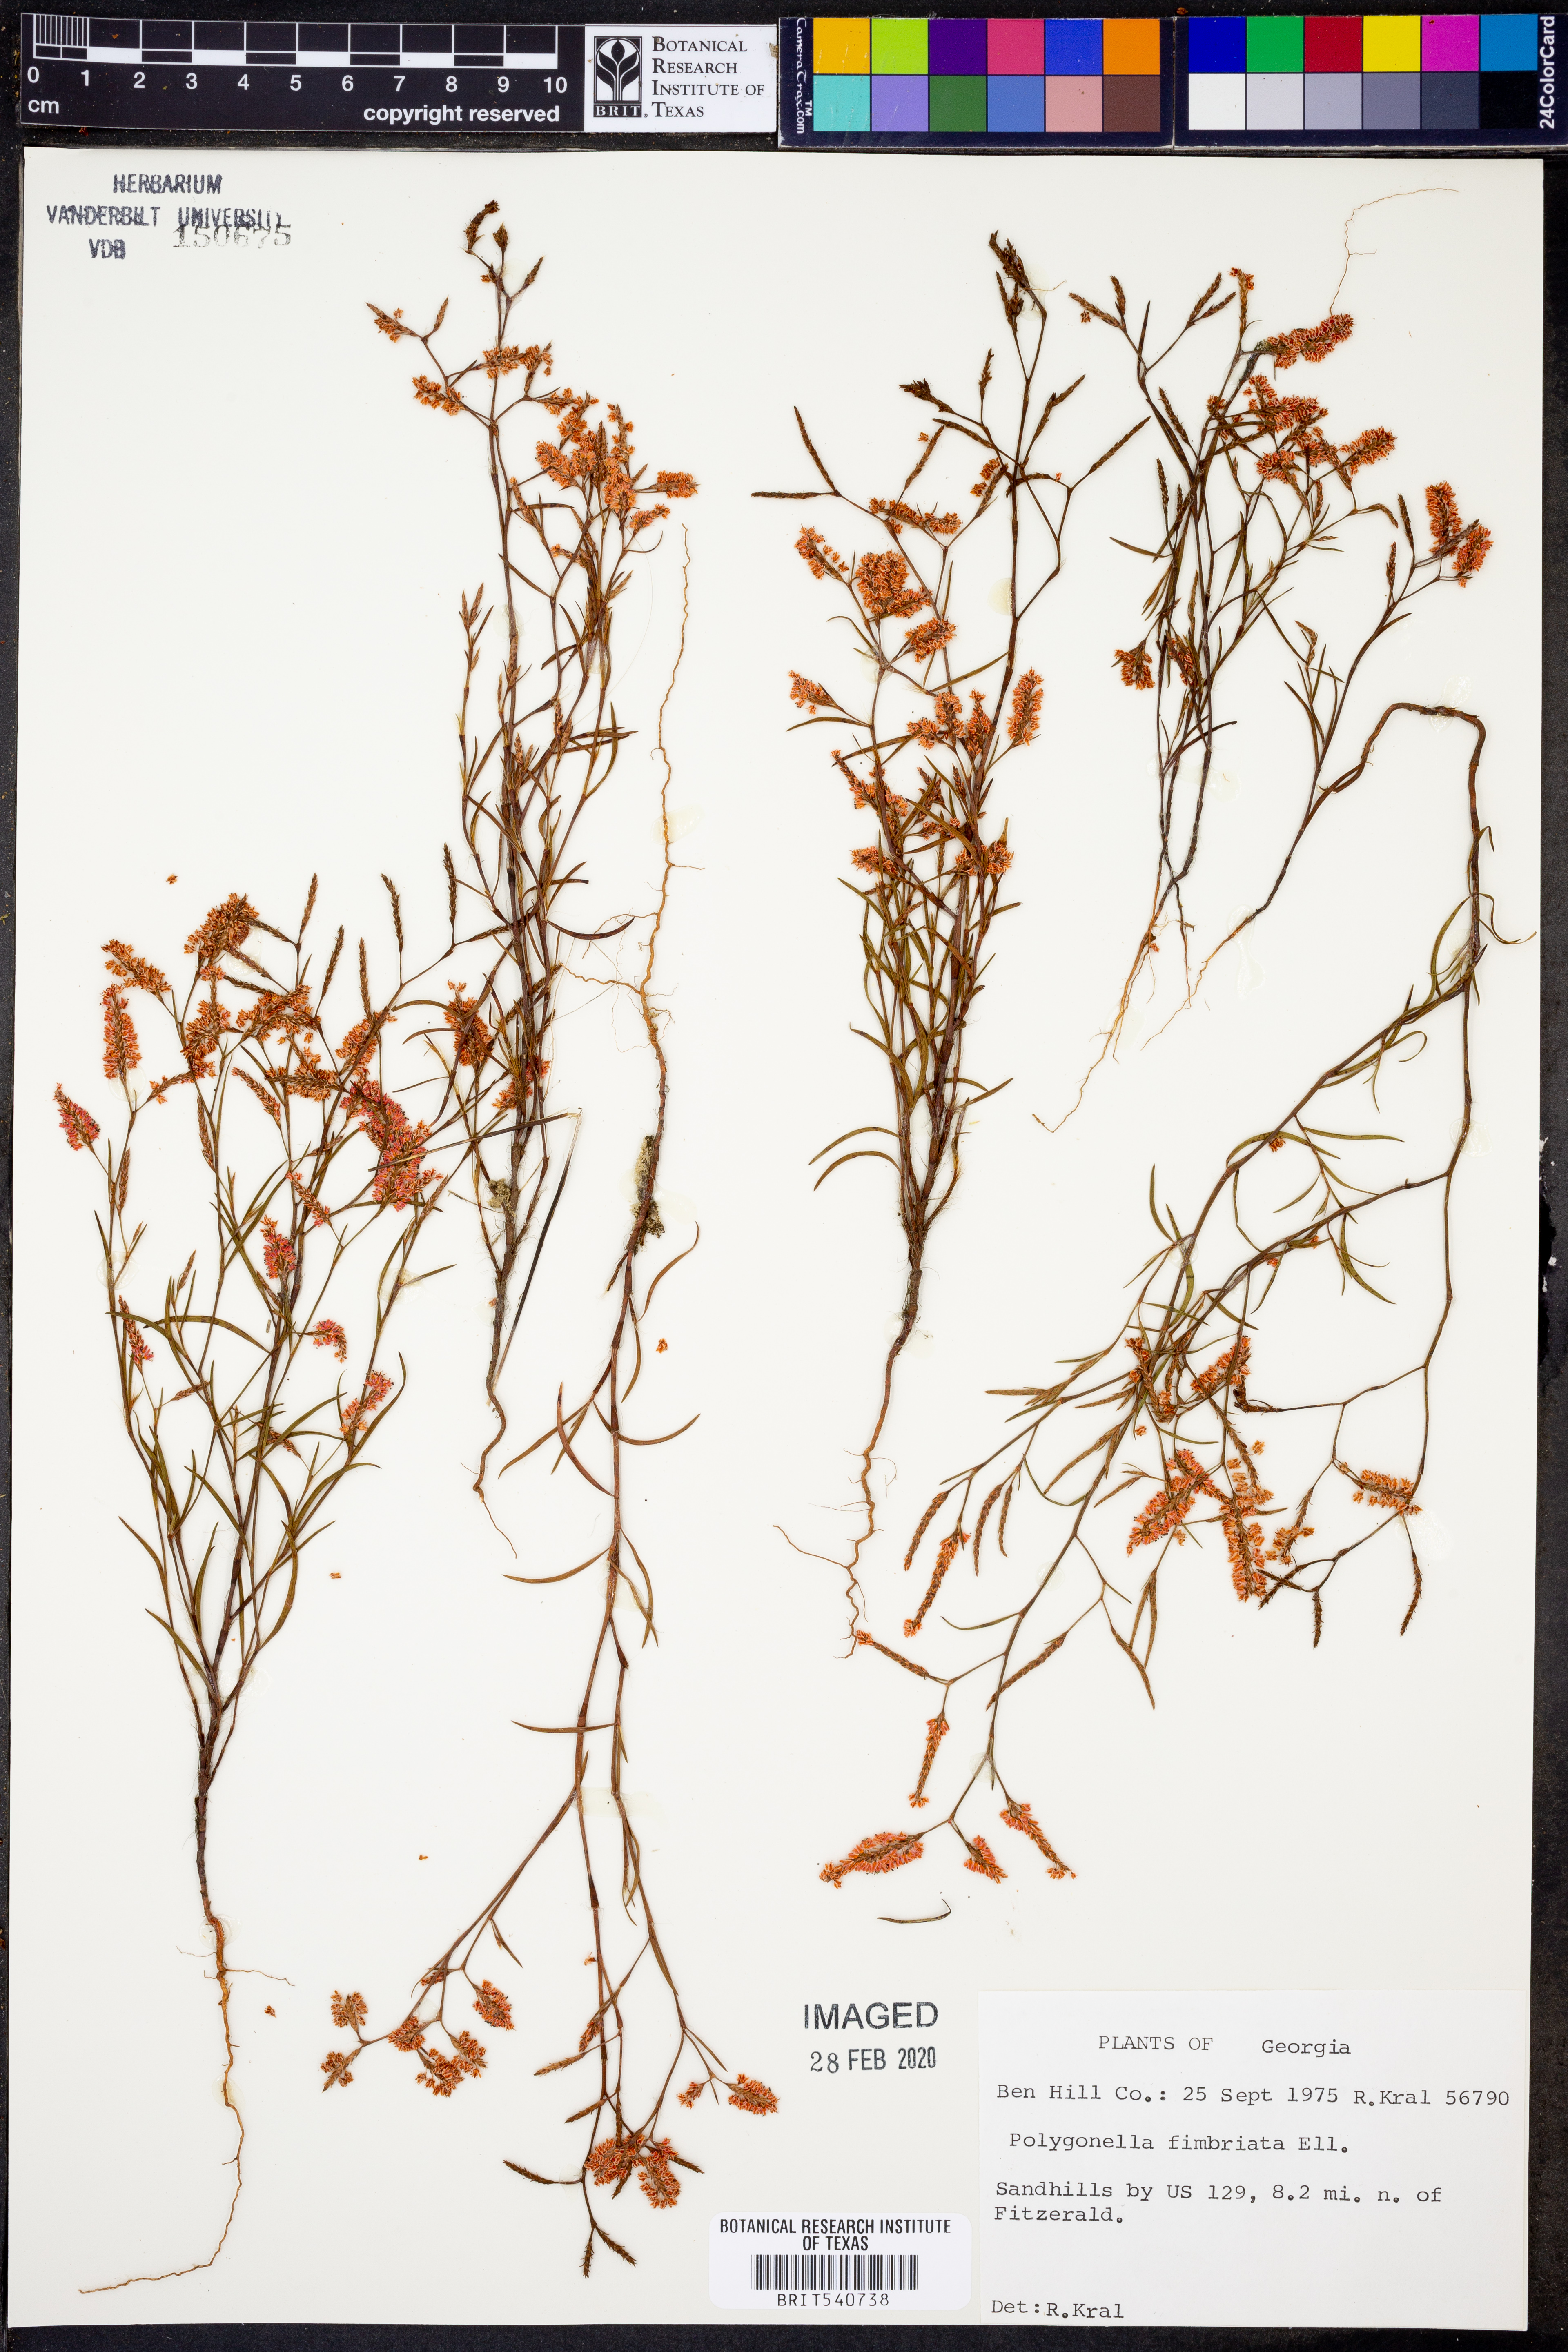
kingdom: Plantae
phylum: Tracheophyta
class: Magnoliopsida
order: Caryophyllales
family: Polygonaceae
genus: Polygonella
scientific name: Polygonella fimbriata
